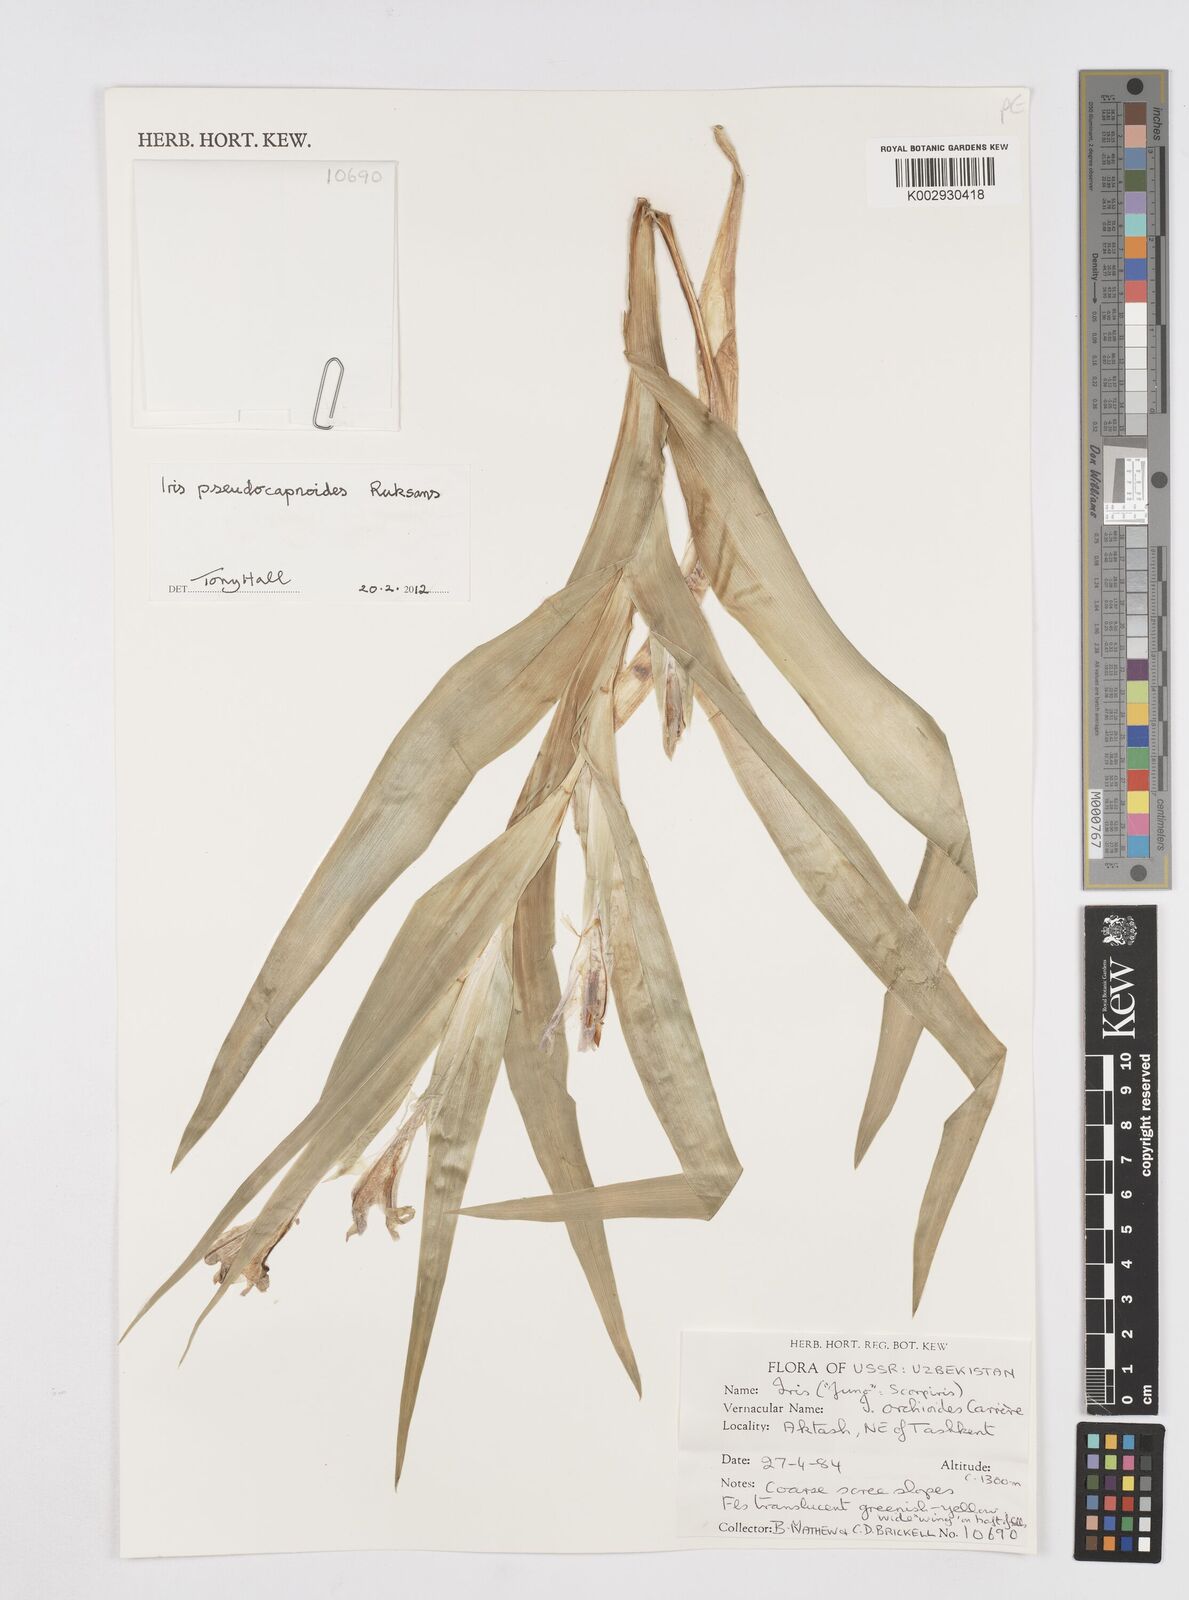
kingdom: Plantae
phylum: Tracheophyta
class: Liliopsida
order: Asparagales
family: Iridaceae
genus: Iris
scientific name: Iris pseudocapnoides
